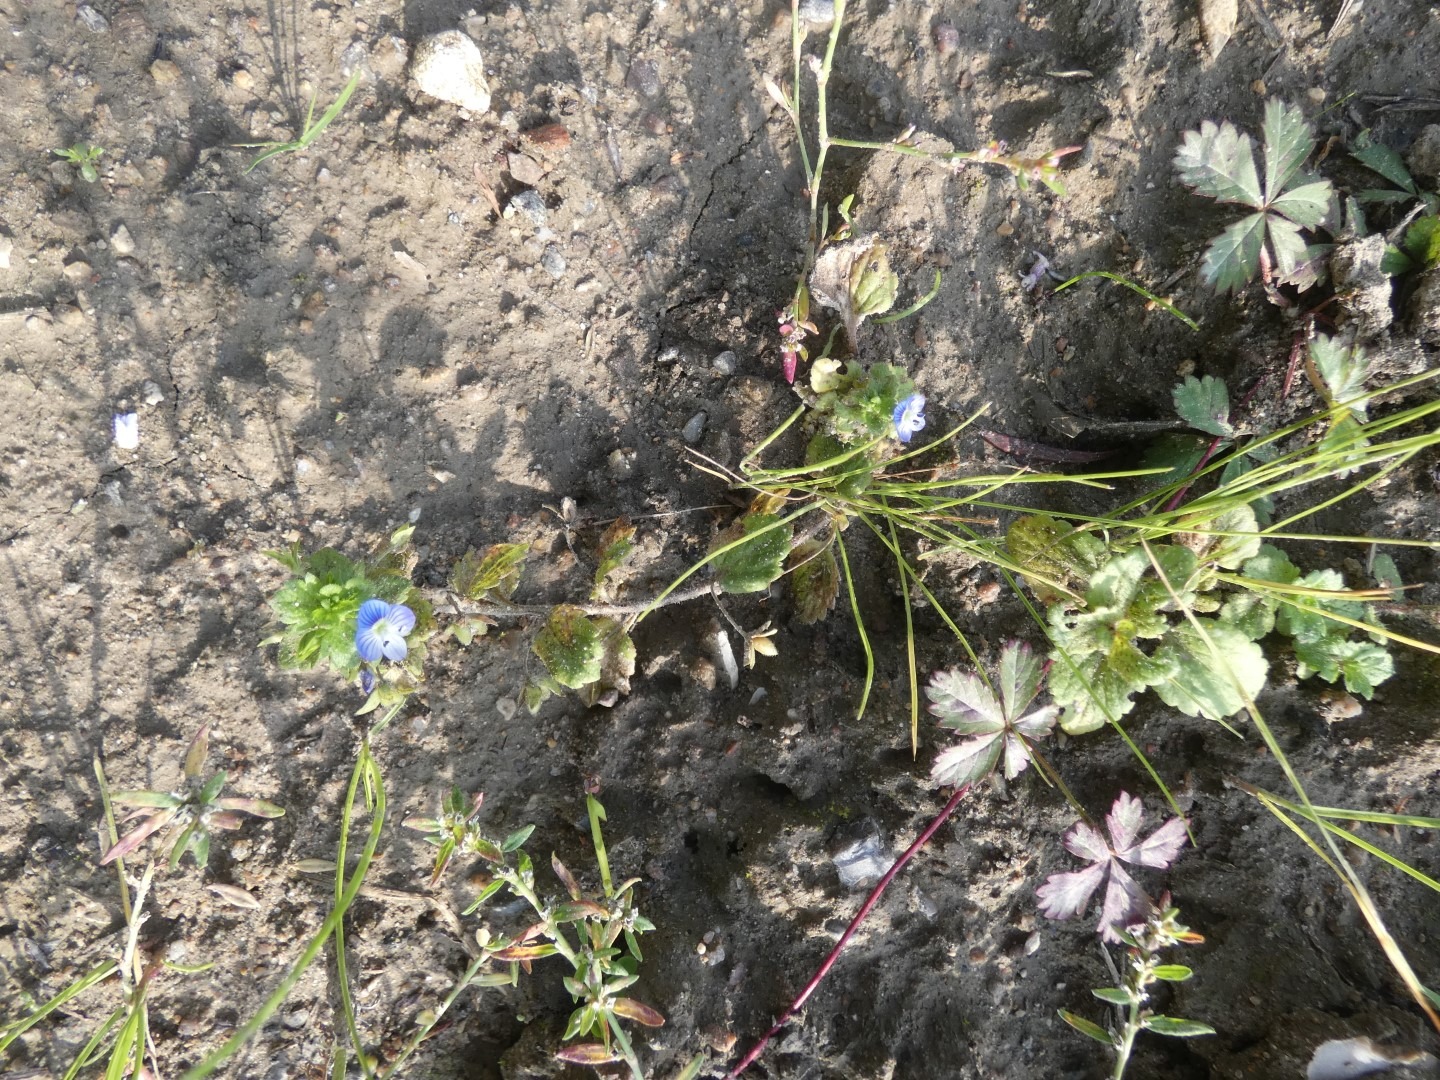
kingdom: Plantae
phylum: Tracheophyta
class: Magnoliopsida
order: Lamiales
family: Plantaginaceae
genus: Veronica
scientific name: Veronica persica
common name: Storkronet ærenpris
